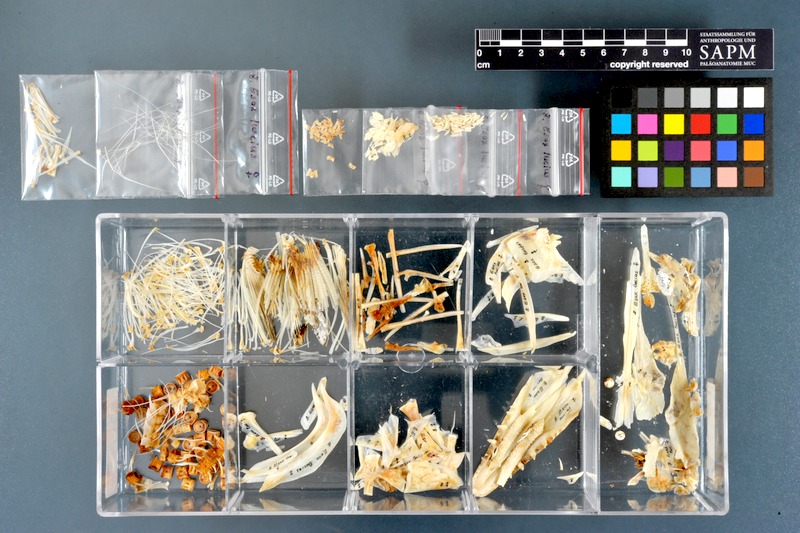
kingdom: Animalia
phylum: Chordata
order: Esociformes
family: Esocidae
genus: Esox
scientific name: Esox lucius
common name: Northern pike
